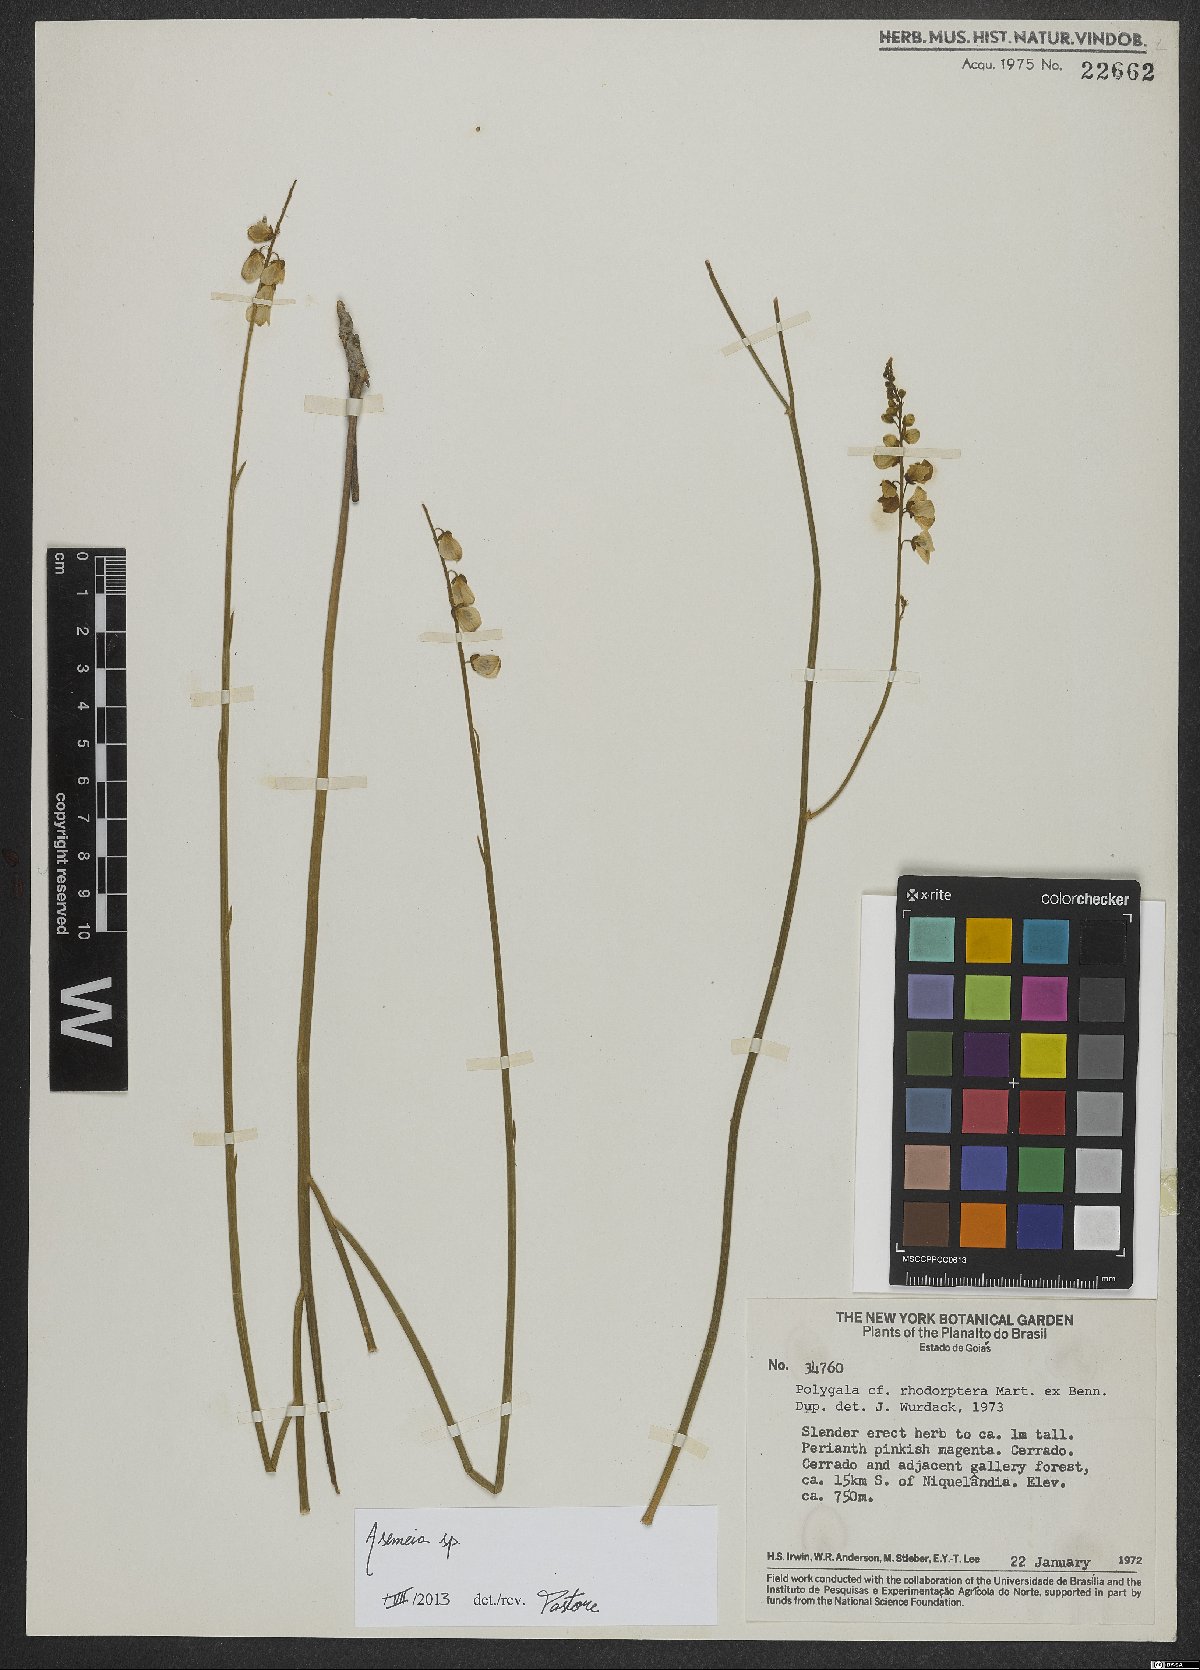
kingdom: Plantae
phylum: Tracheophyta
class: Magnoliopsida
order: Fabales
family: Polygalaceae
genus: Asemeia
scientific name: Asemeia
